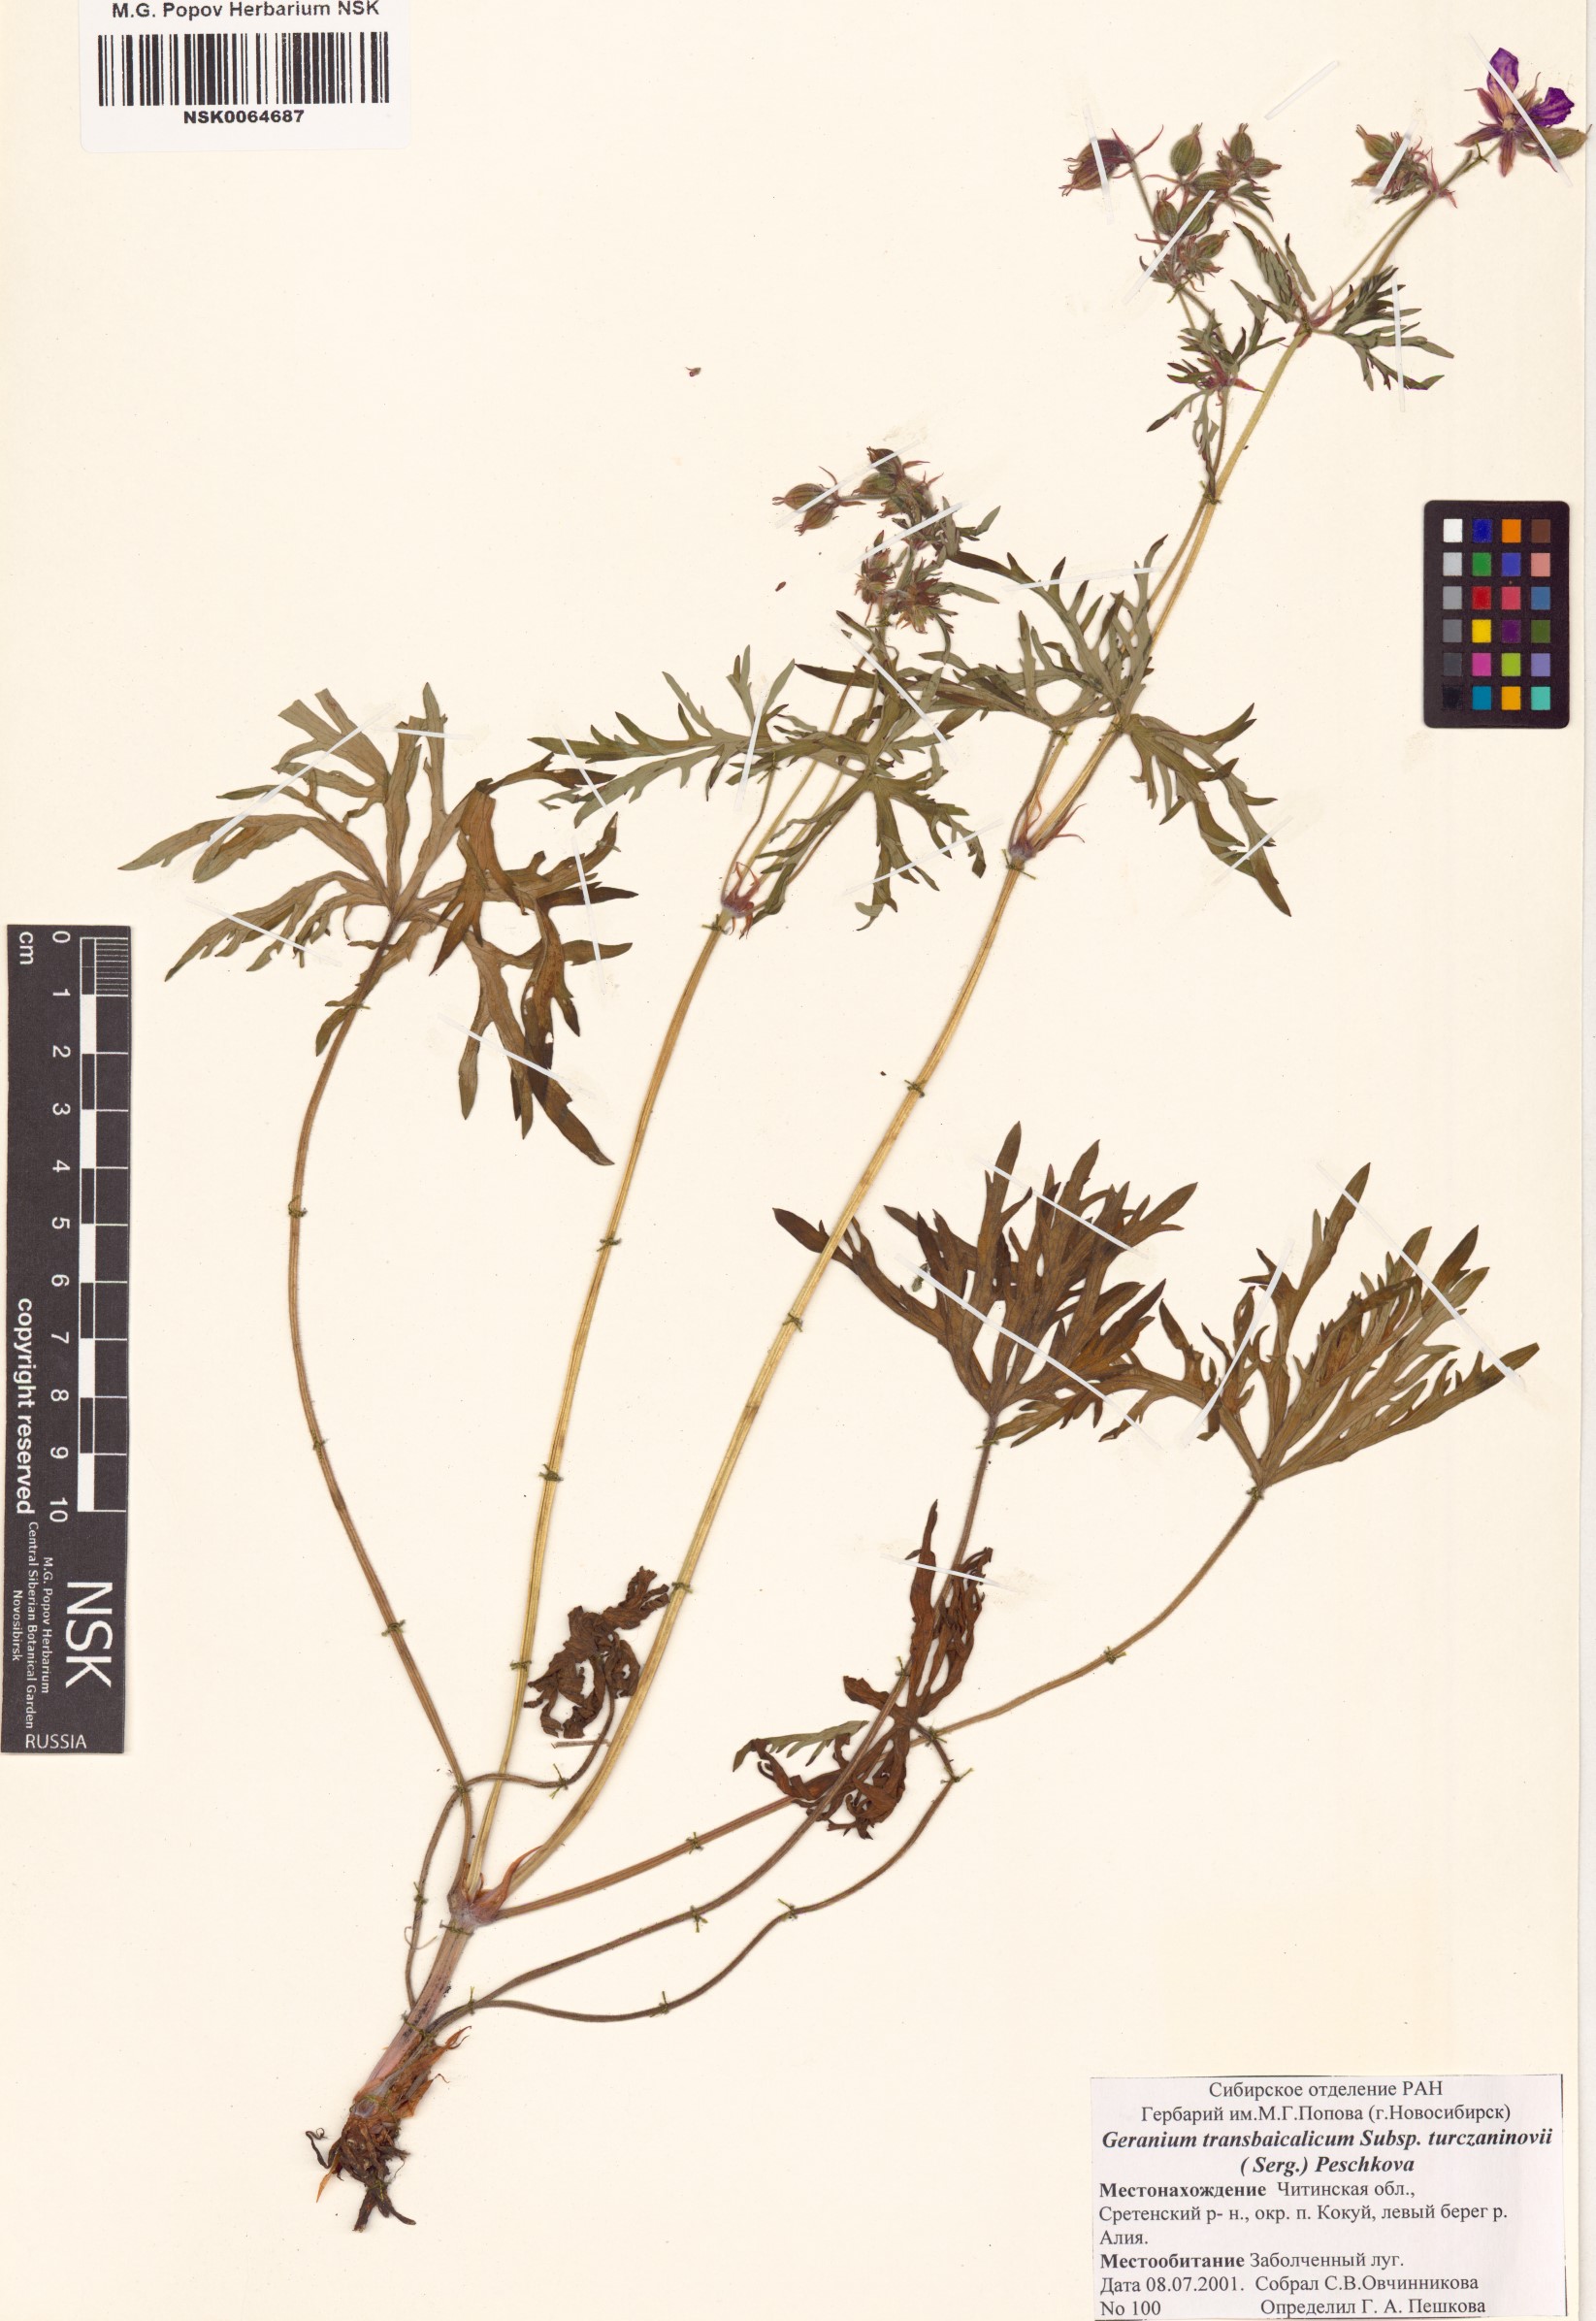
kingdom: Plantae
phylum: Tracheophyta
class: Magnoliopsida
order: Geraniales
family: Geraniaceae
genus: Geranium
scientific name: Geranium pratense
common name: Meadow crane's-bill
